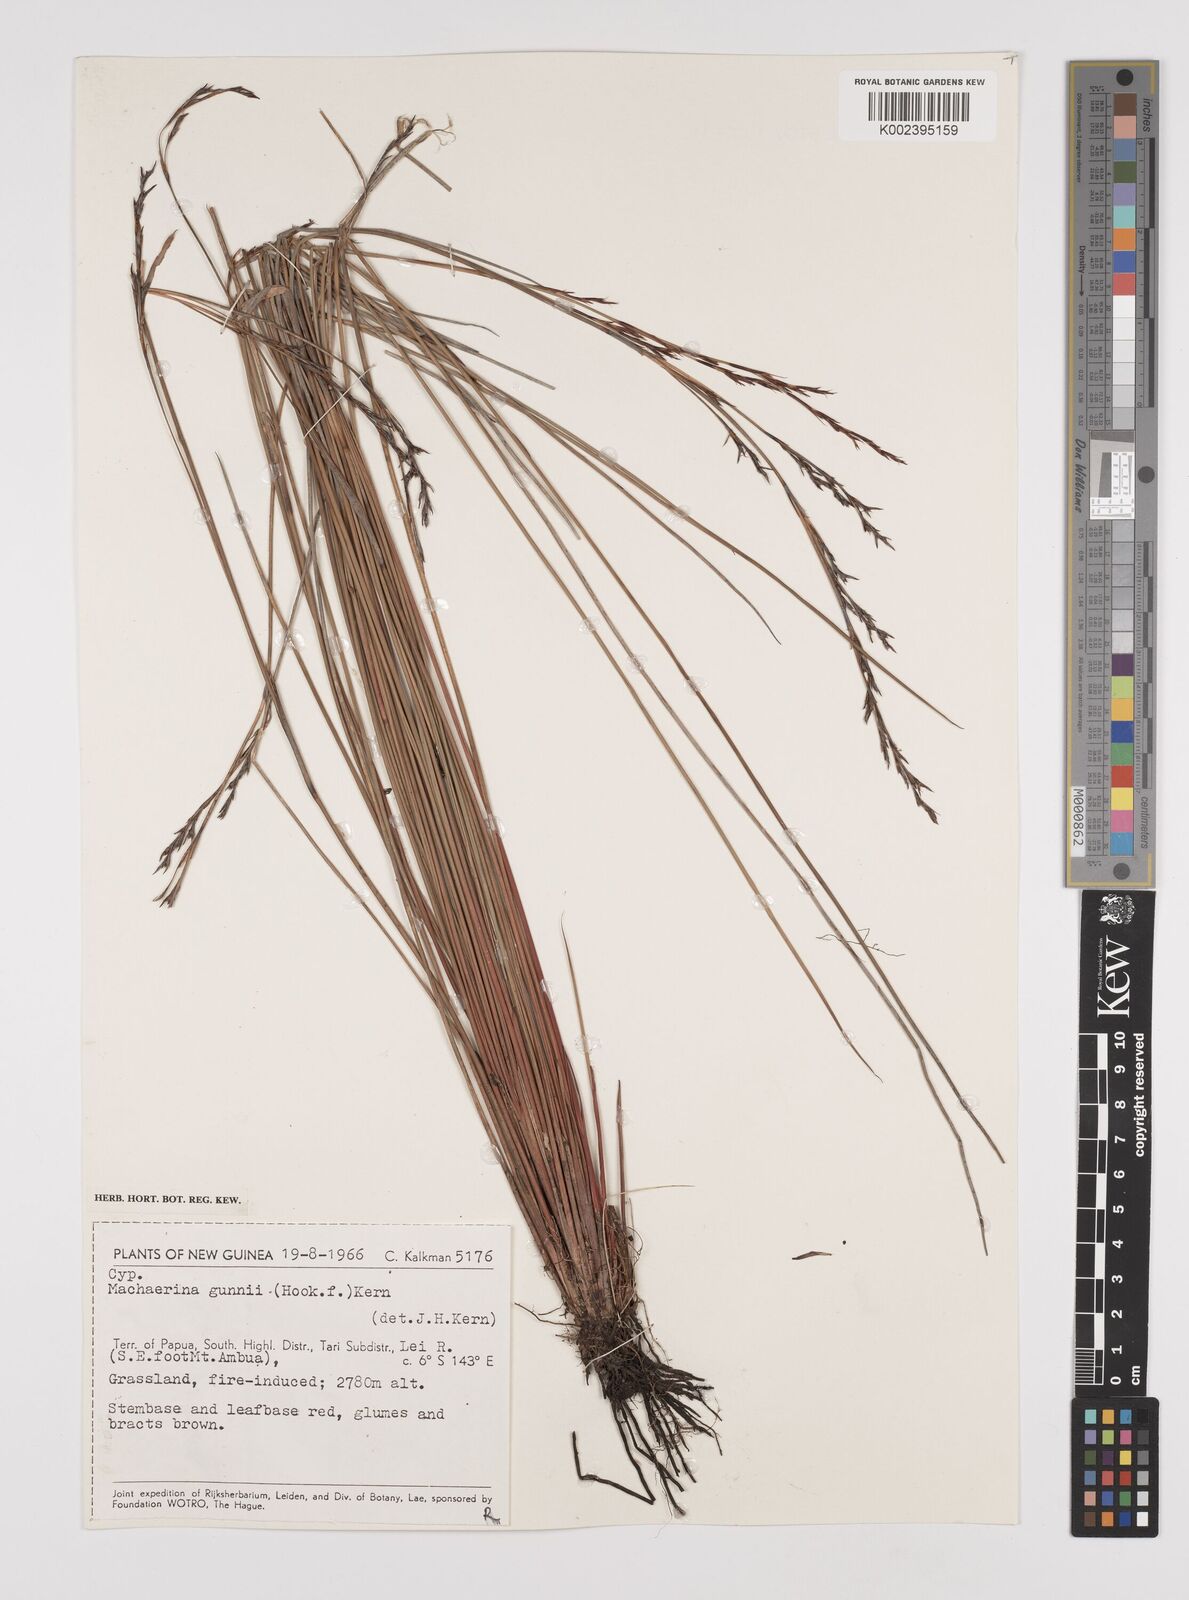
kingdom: Plantae
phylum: Tracheophyta
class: Liliopsida
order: Poales
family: Cyperaceae
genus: Machaerina
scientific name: Machaerina gunnii
